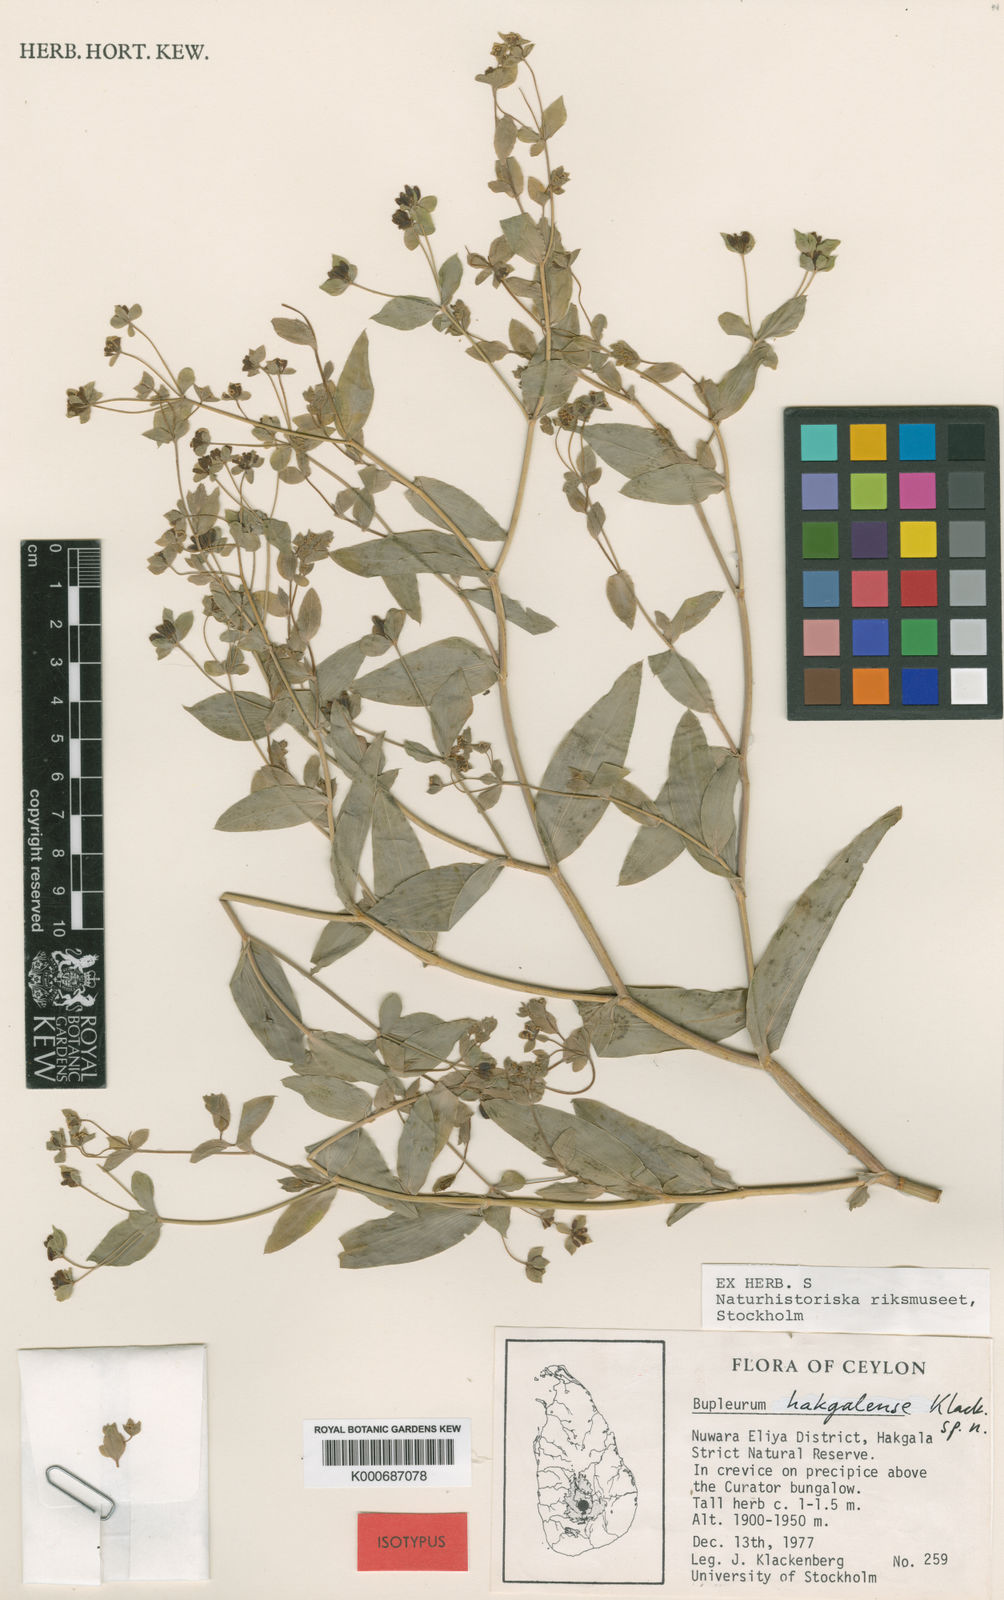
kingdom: Plantae
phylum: Tracheophyta
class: Magnoliopsida
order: Apiales
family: Apiaceae
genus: Bupleurum
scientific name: Bupleurum hakgalense
